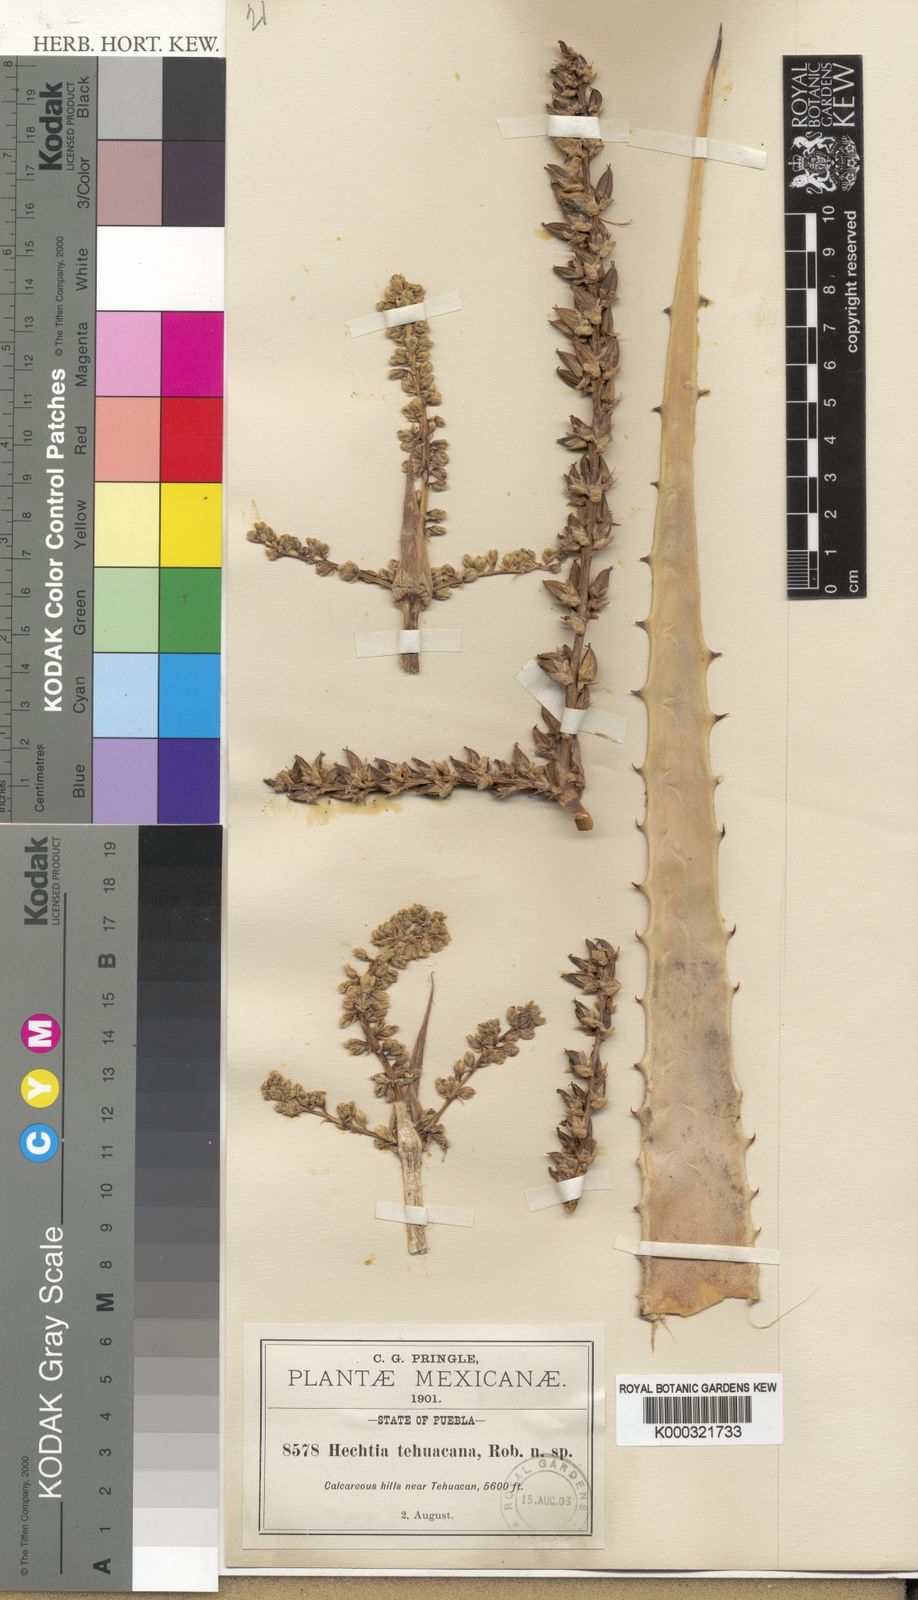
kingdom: Plantae
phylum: Tracheophyta
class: Liliopsida
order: Poales
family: Bromeliaceae
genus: Hechtia
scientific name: Hechtia podantha
